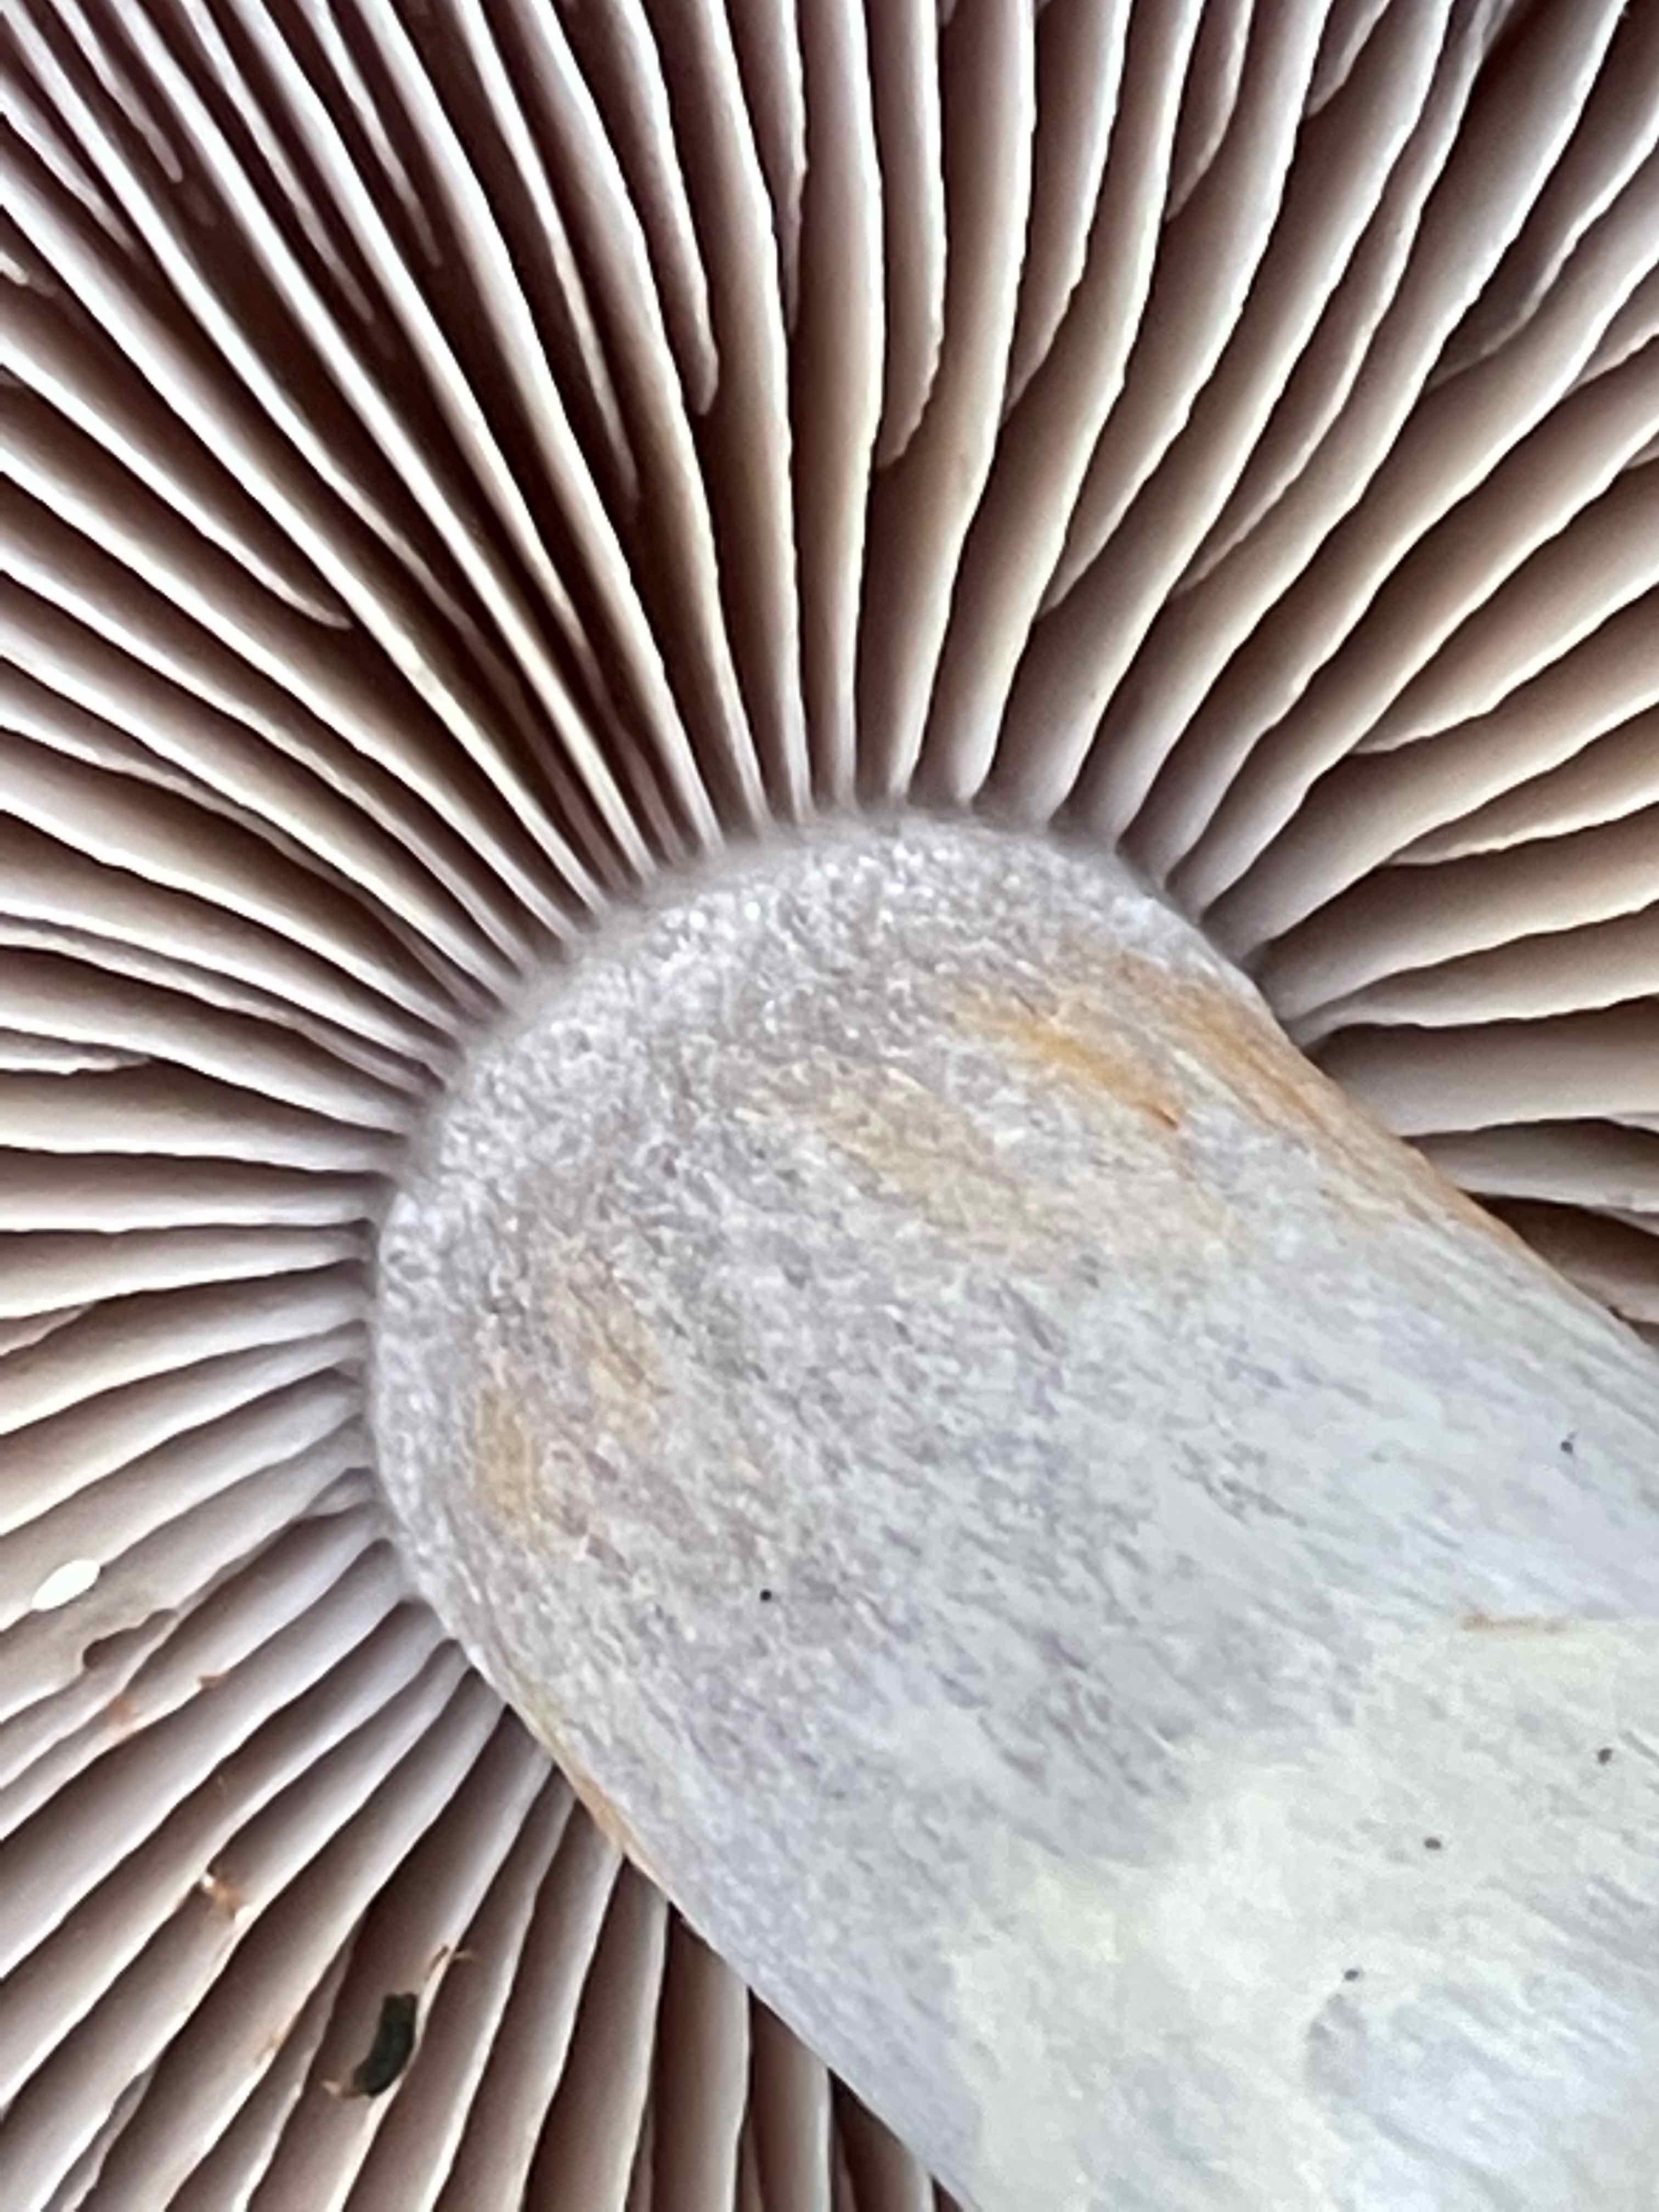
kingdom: Fungi
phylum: Basidiomycota
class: Agaricomycetes
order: Agaricales
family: Cortinariaceae
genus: Cortinarius
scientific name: Cortinarius
